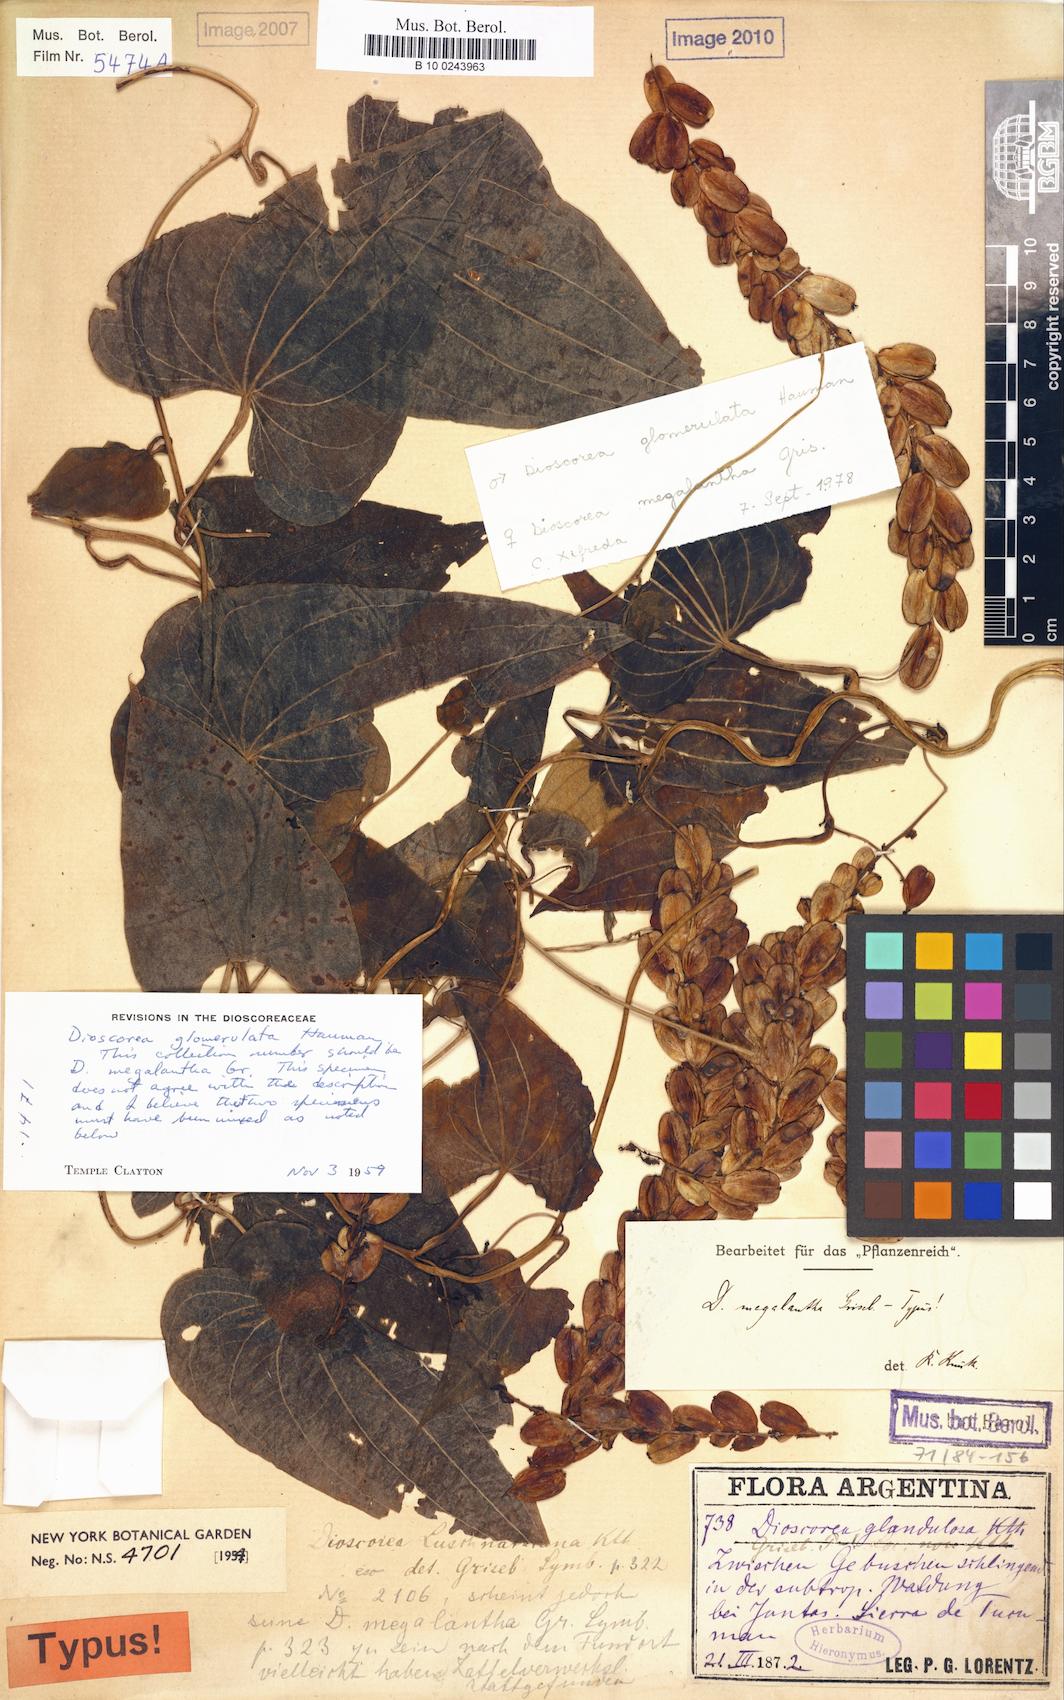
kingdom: Plantae
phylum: Tracheophyta
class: Liliopsida
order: Dioscoreales
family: Dioscoreaceae
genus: Dioscorea
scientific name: Dioscorea glomerulata
